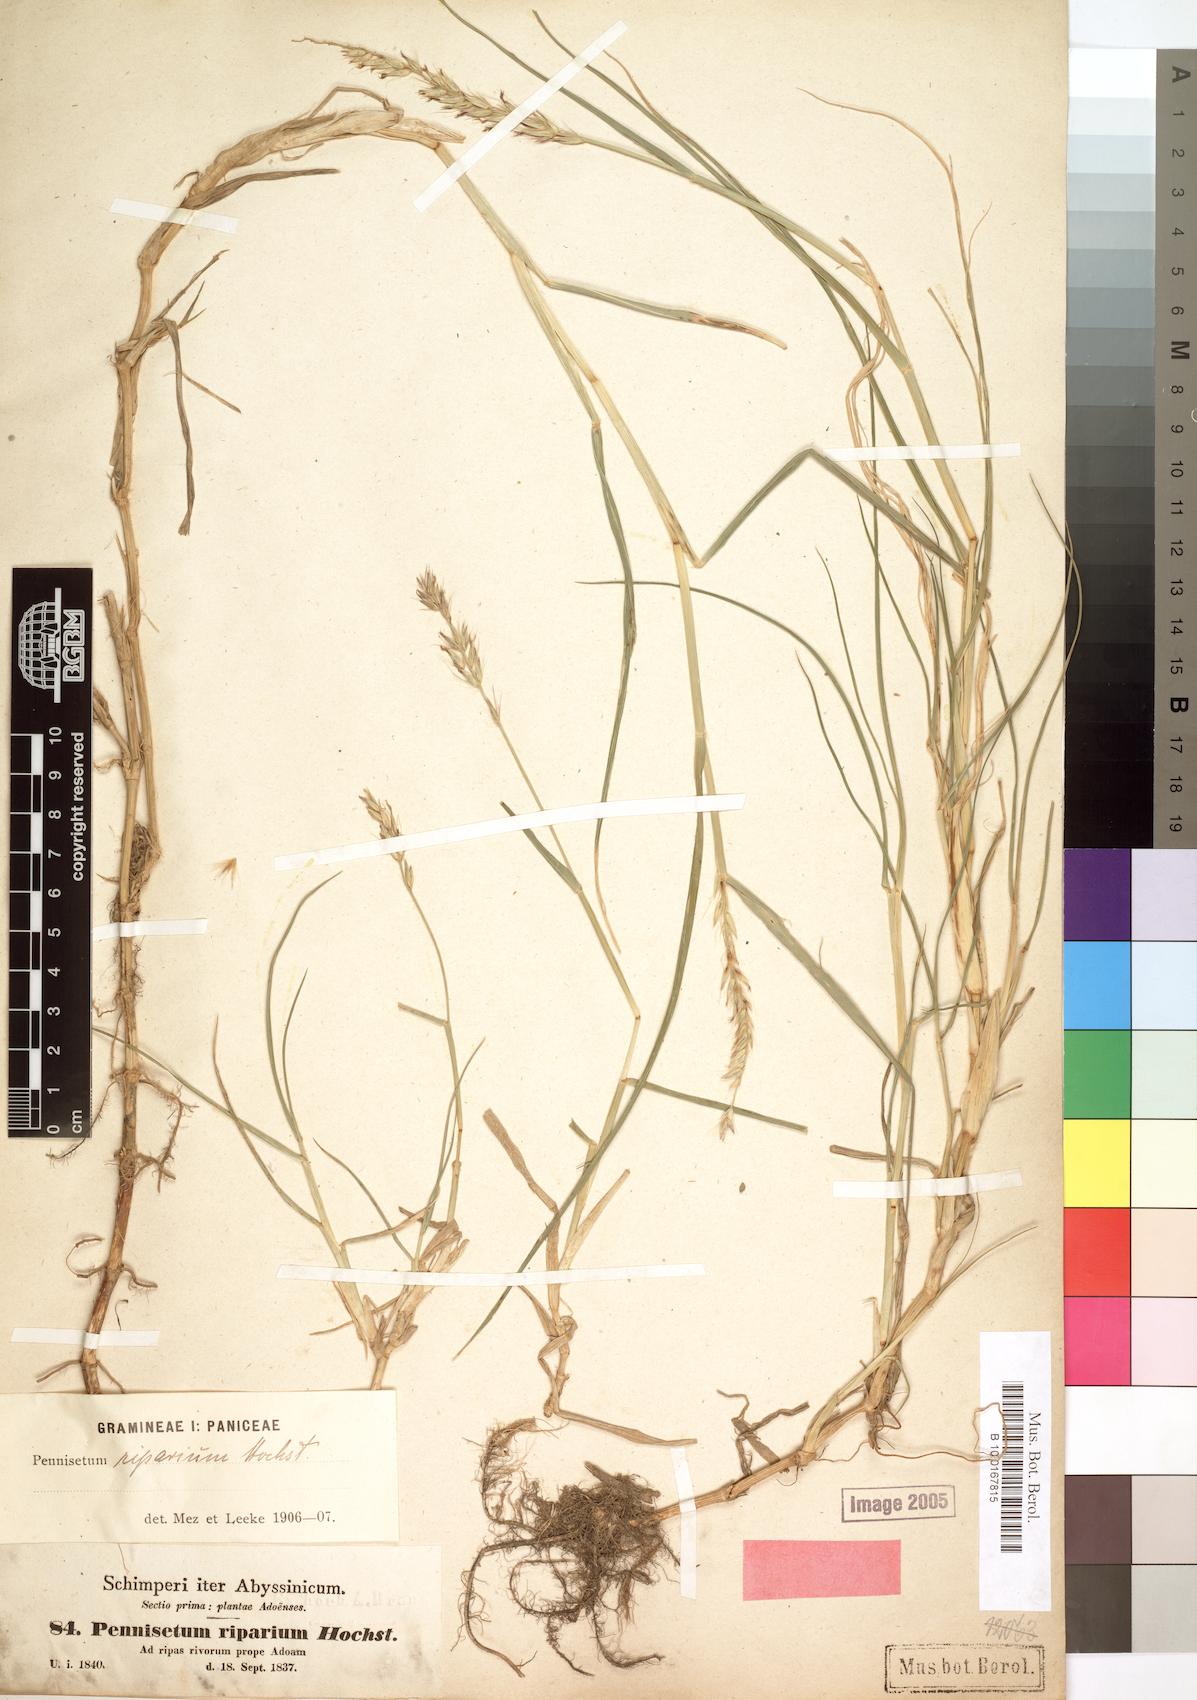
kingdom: Plantae
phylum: Tracheophyta
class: Liliopsida
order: Poales
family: Poaceae
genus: Cenchrus
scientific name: Cenchrus riparius
